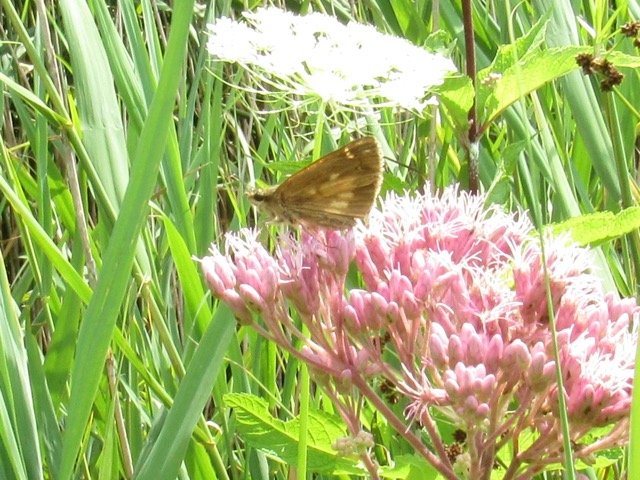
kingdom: Animalia
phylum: Arthropoda
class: Insecta
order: Lepidoptera
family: Hesperiidae
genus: Poanes
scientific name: Poanes viator
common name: Broad-winged Skipper
